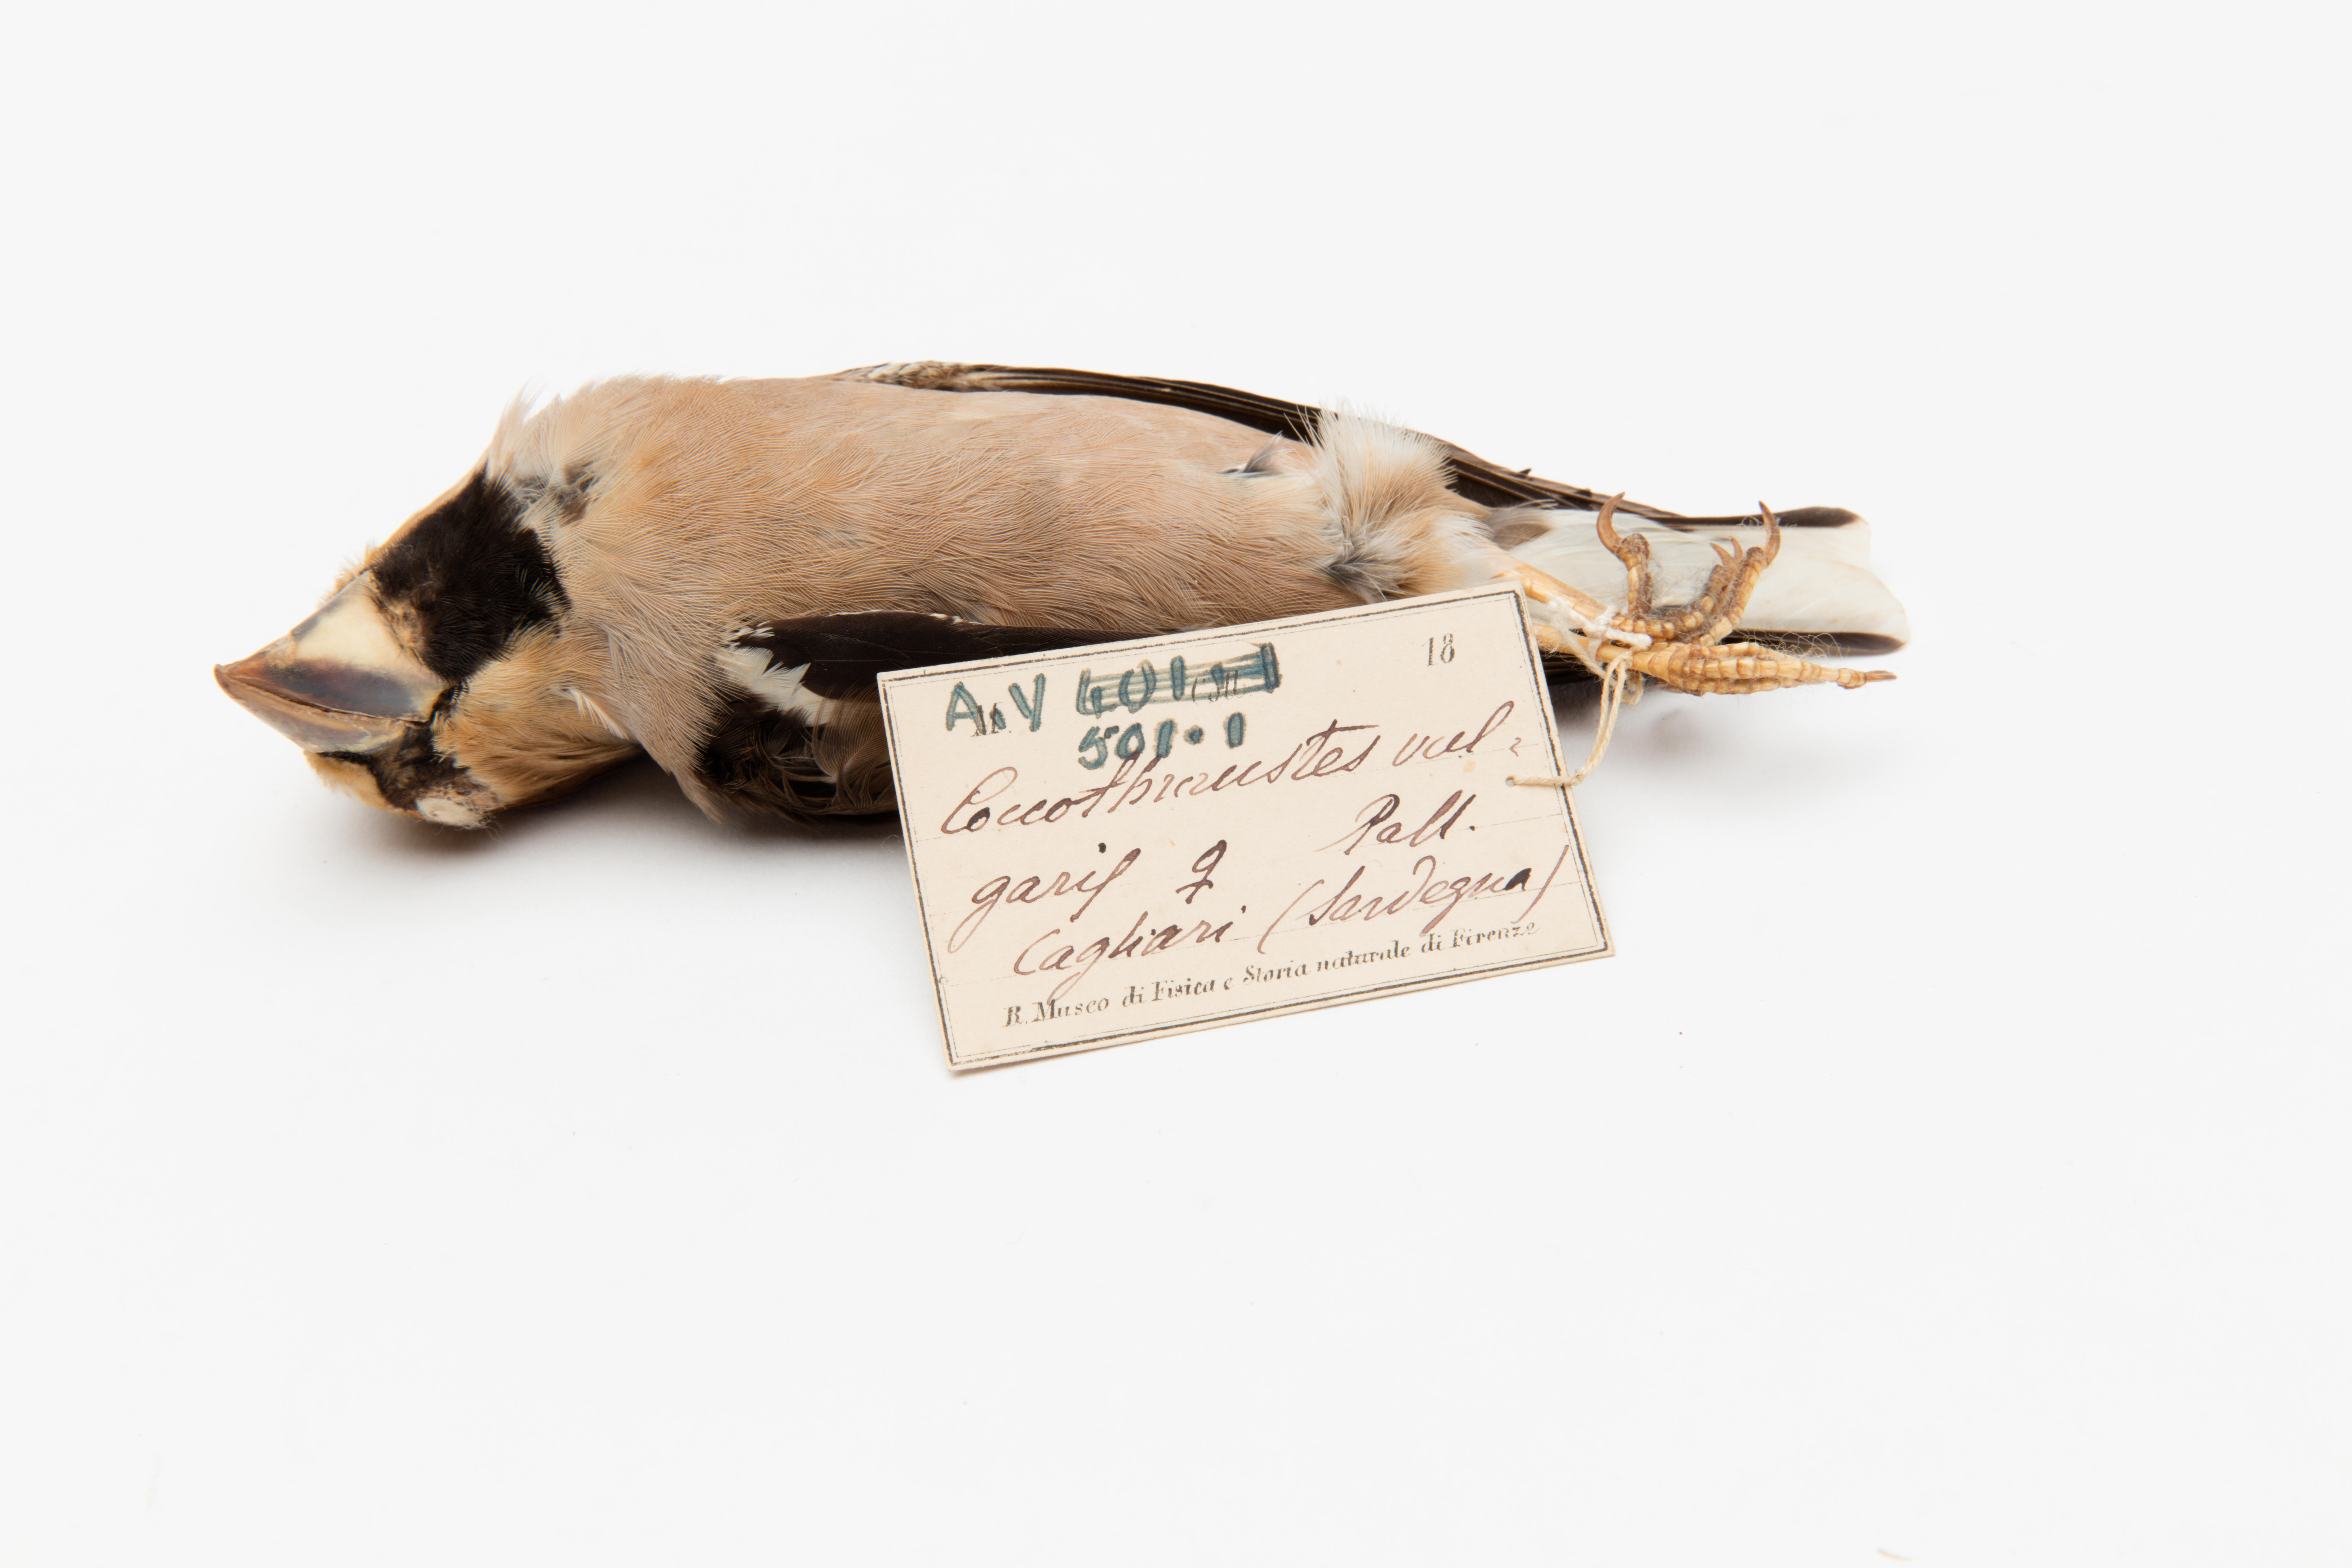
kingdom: Animalia
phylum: Chordata
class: Aves
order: Passeriformes
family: Fringillidae
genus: Coccothraustes
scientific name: Coccothraustes coccothraustes
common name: Hawfinch
